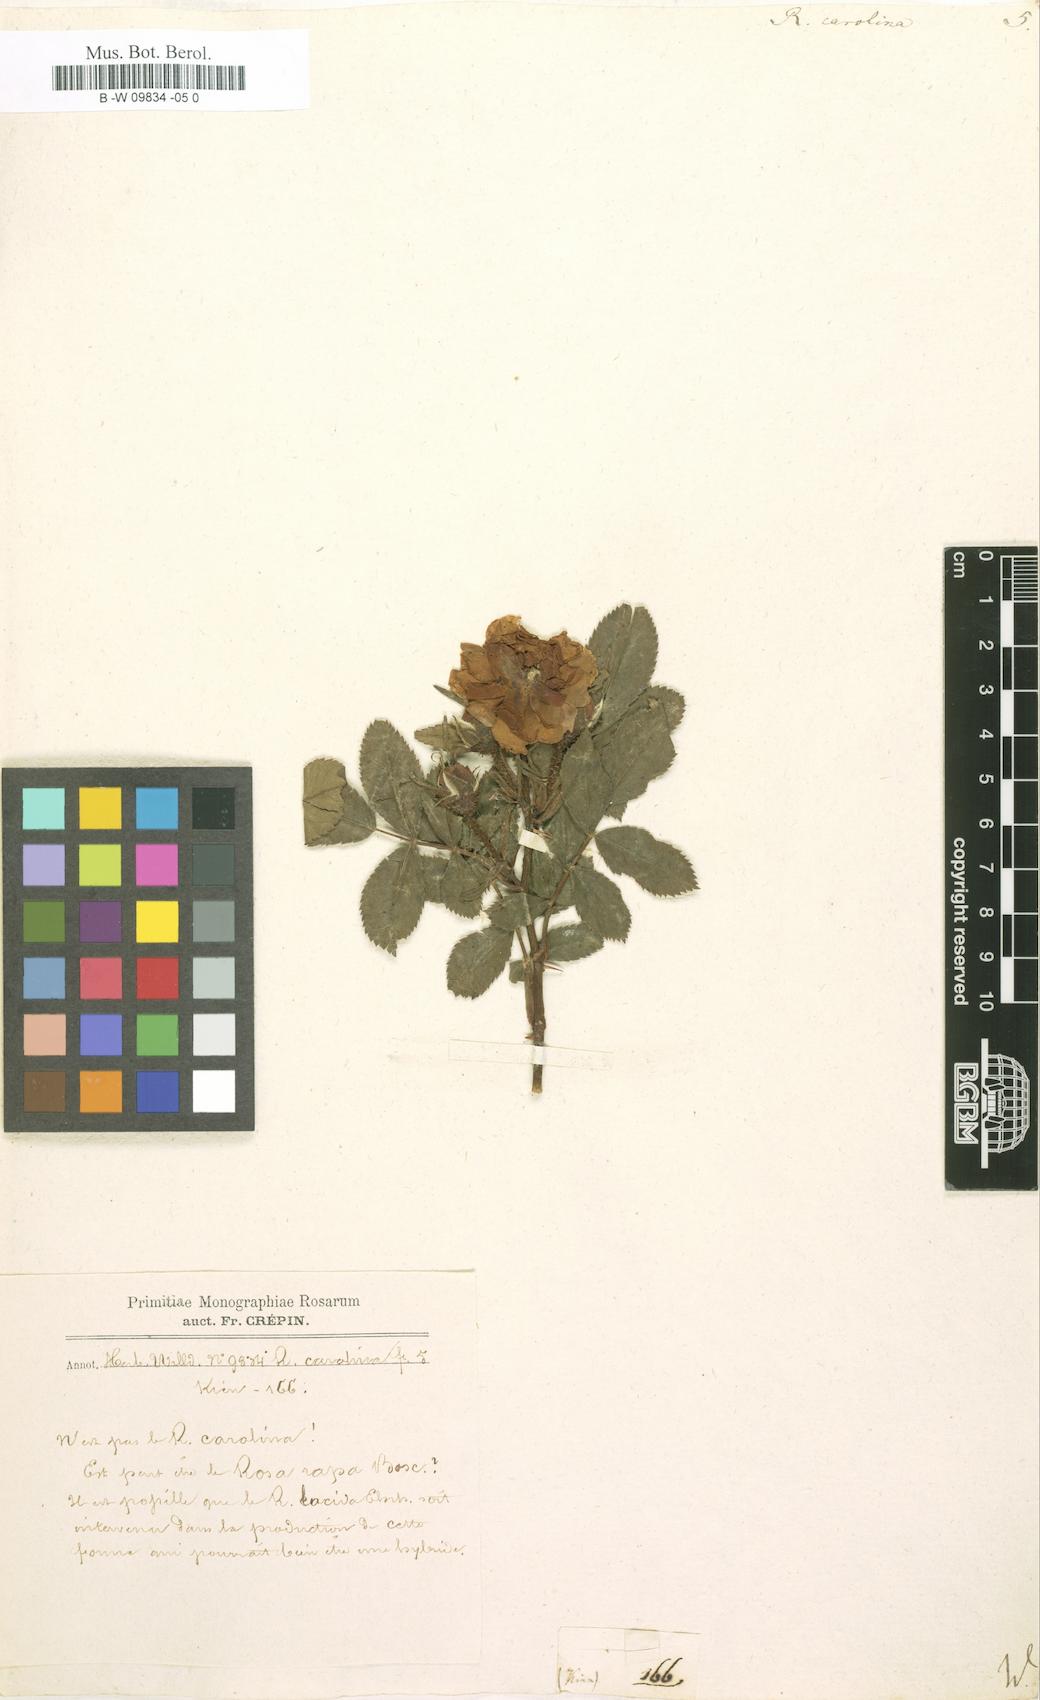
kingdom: Plantae
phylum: Tracheophyta
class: Magnoliopsida
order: Rosales
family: Rosaceae
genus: Rosa
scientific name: Rosa carolina
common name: Pasture rose
